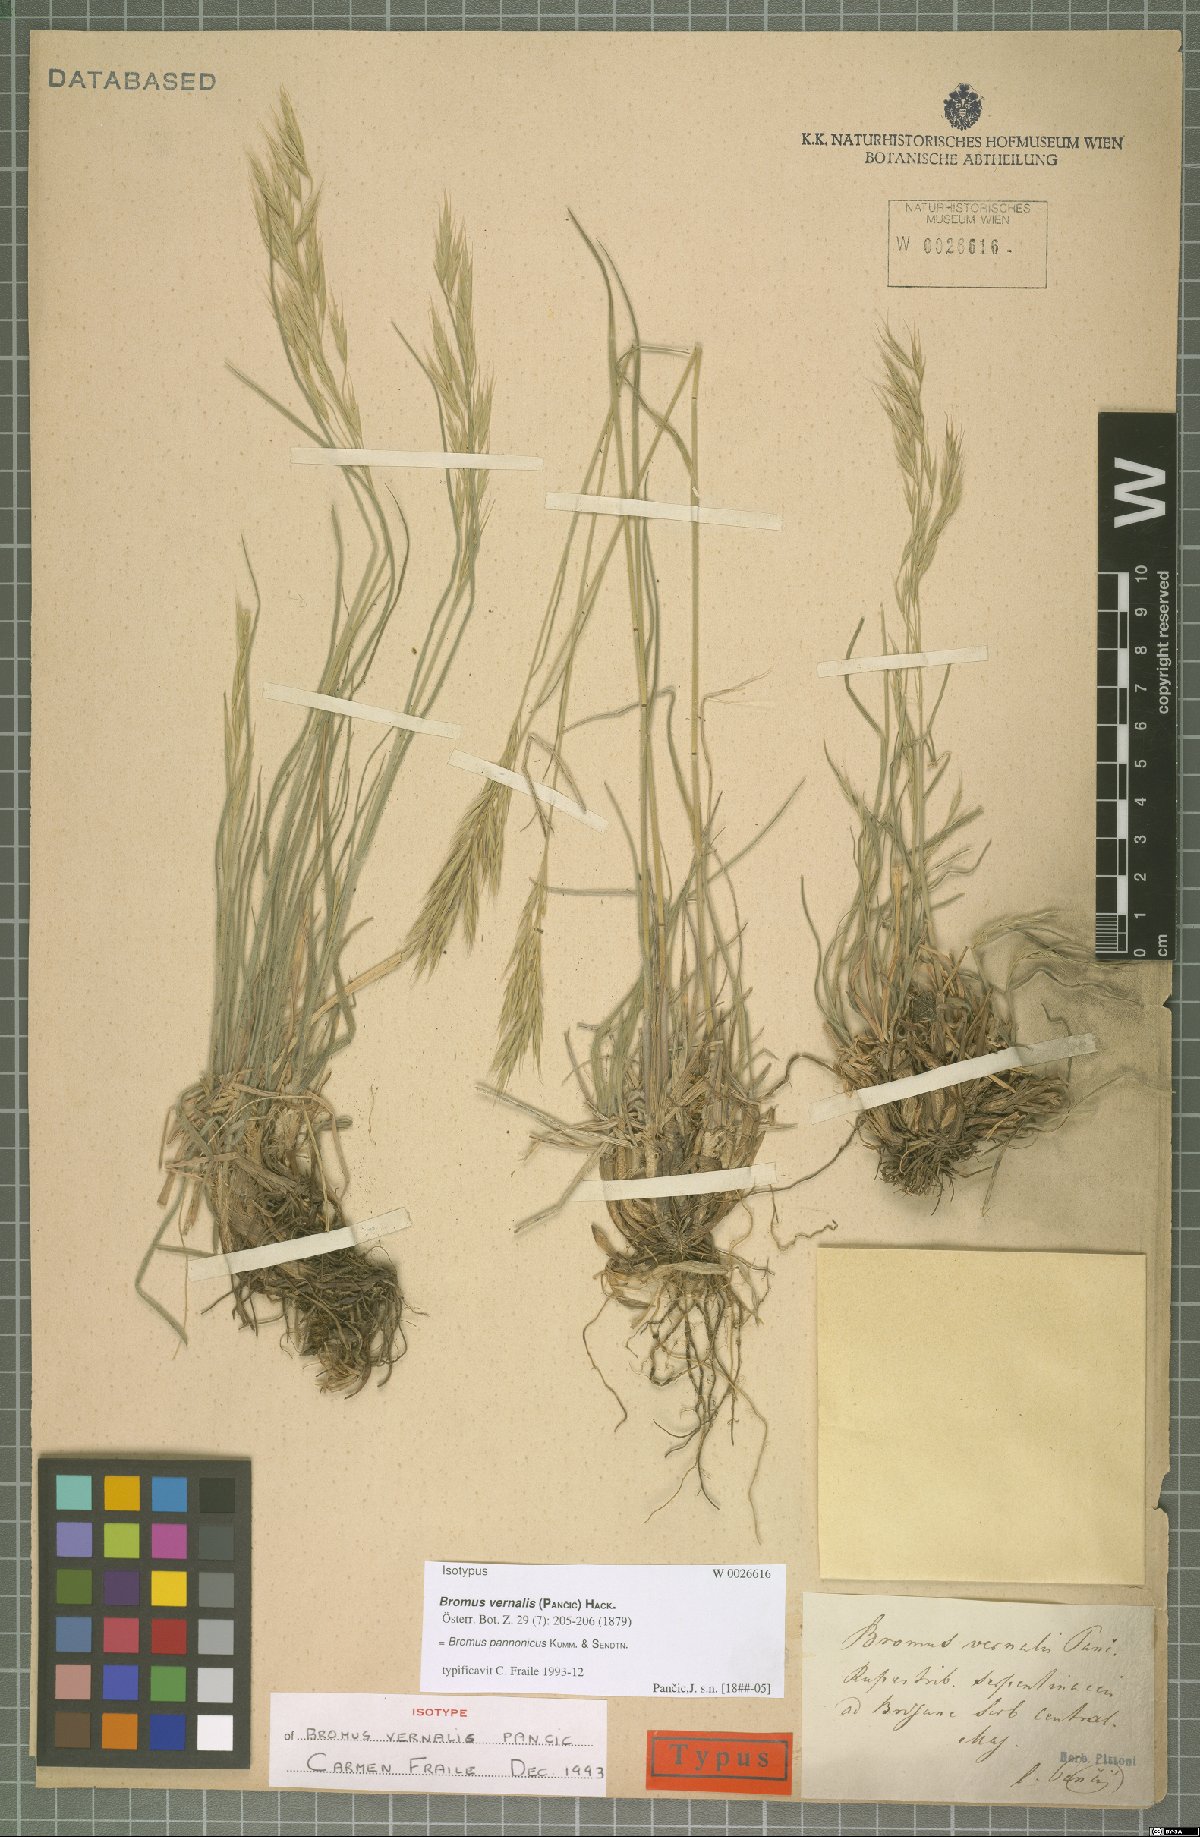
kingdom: Plantae
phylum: Tracheophyta
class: Liliopsida
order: Poales
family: Poaceae
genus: Bromus
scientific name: Bromus pannonicus
